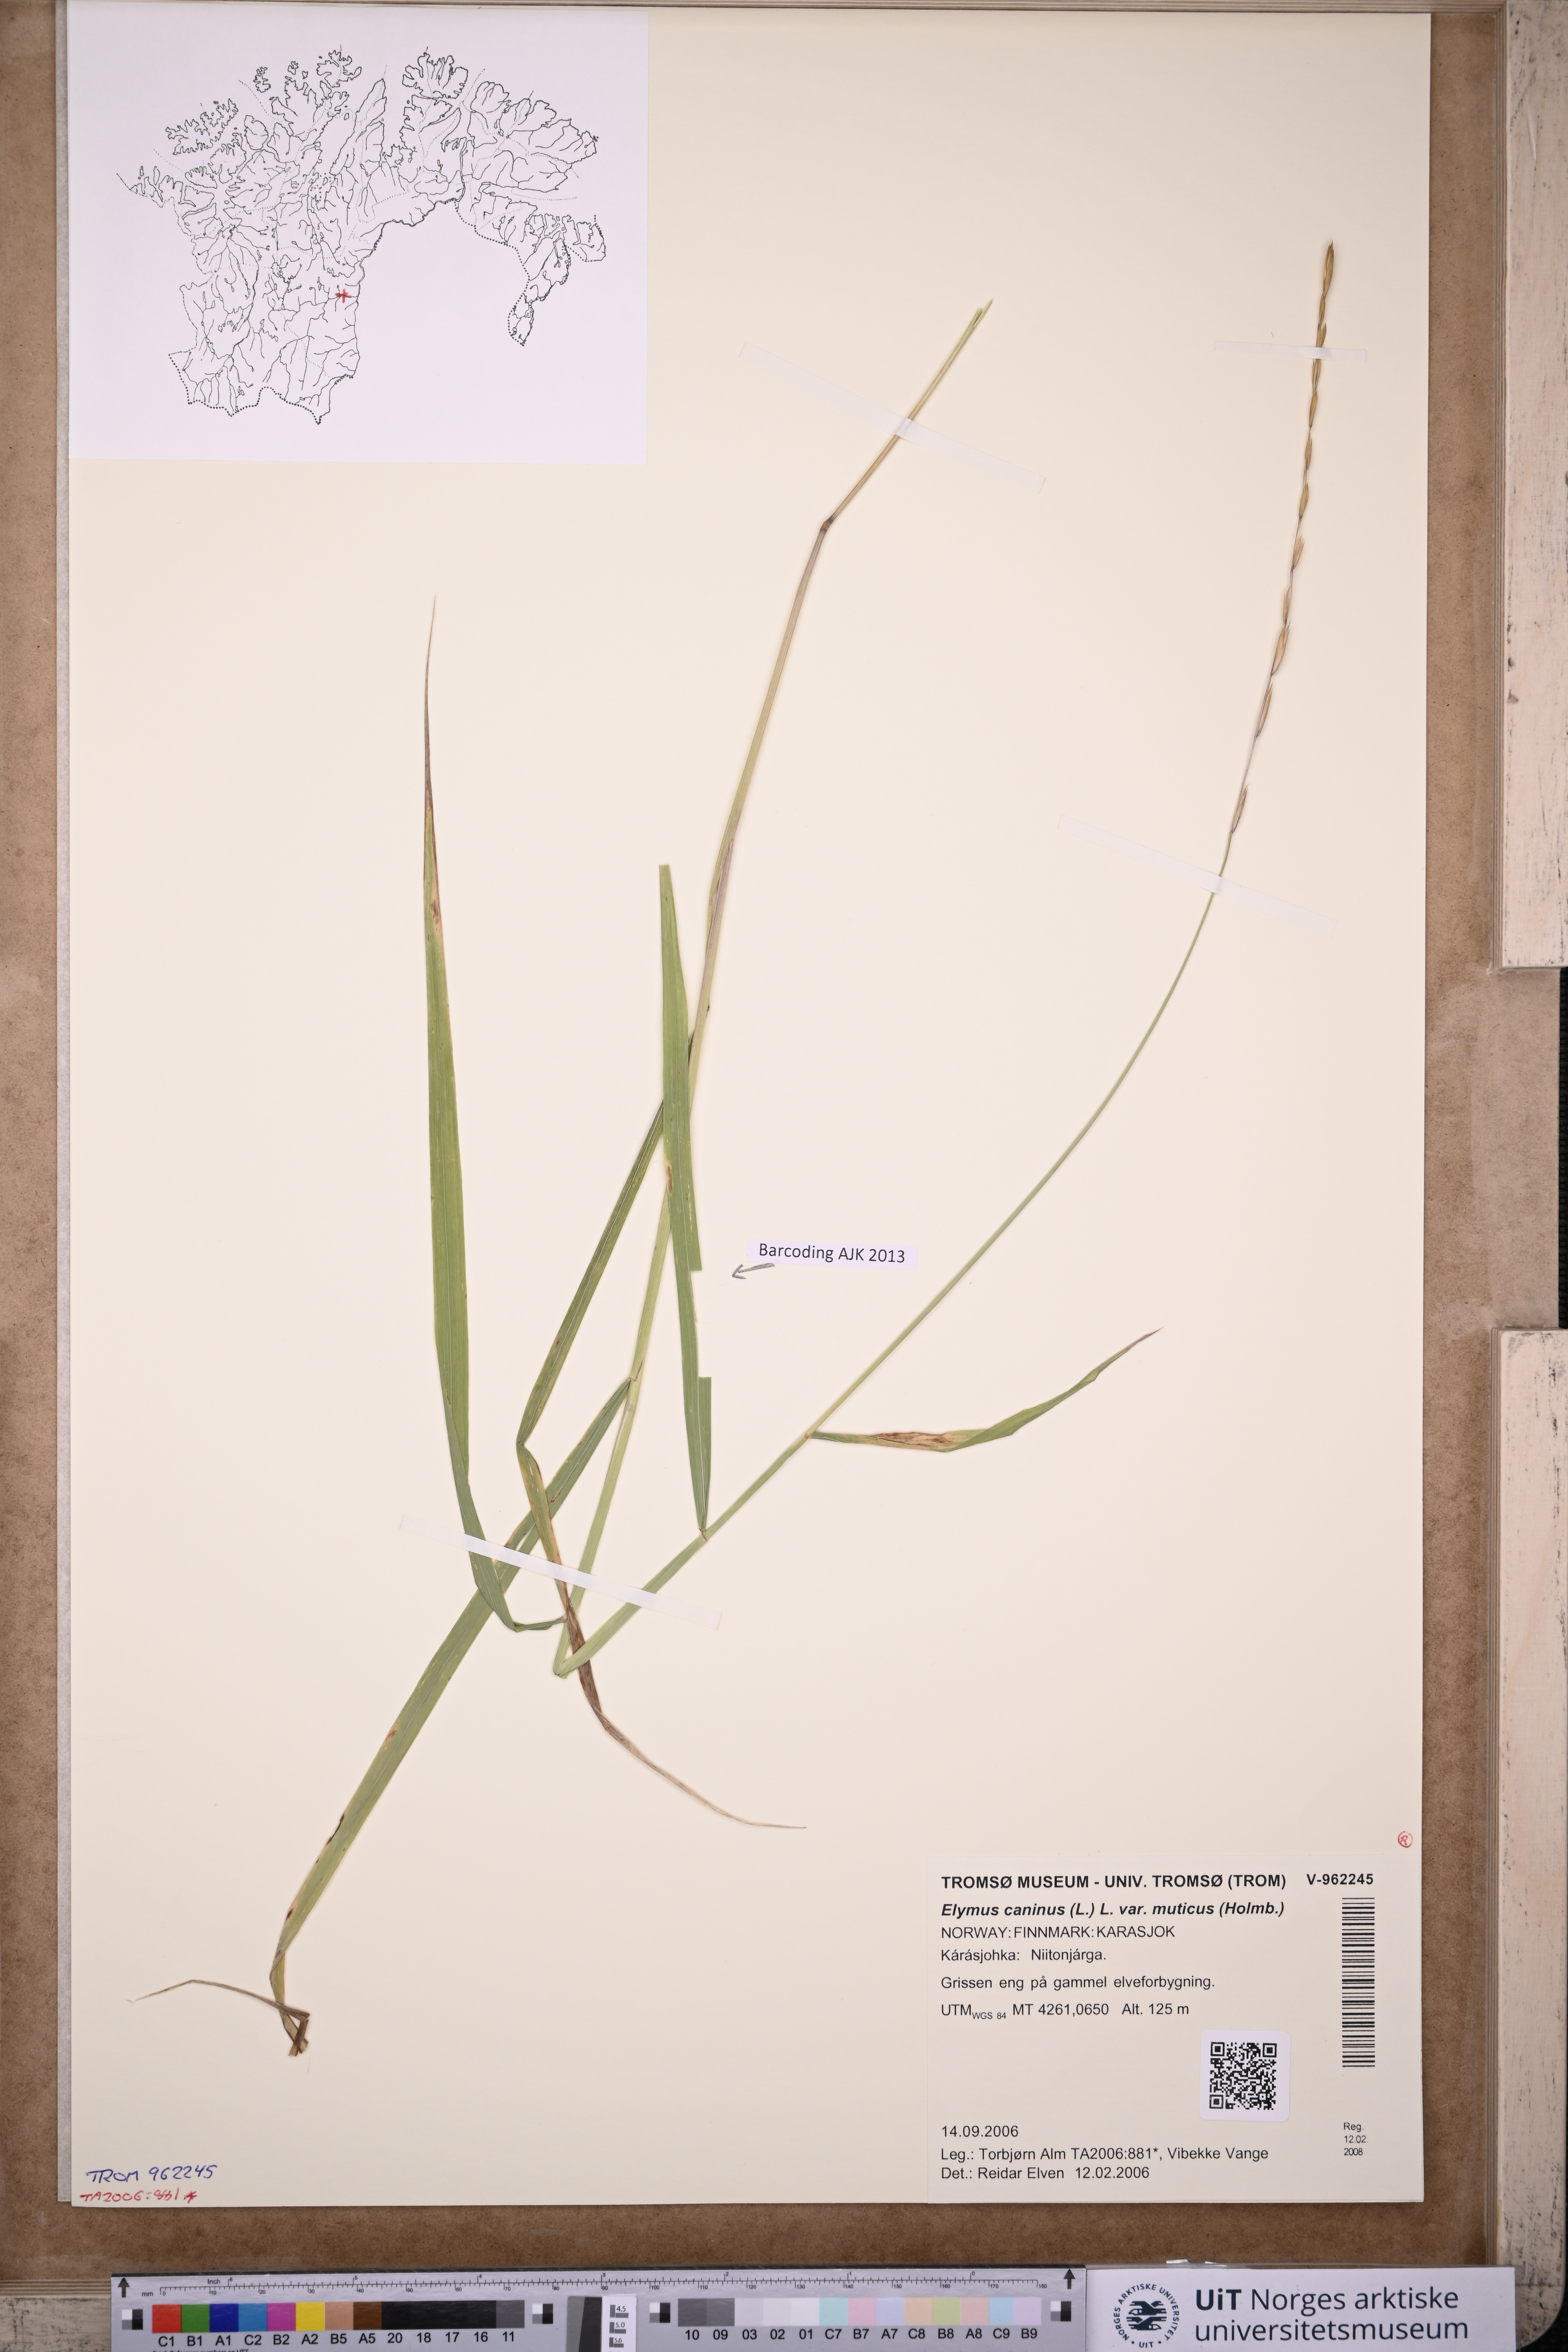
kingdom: Plantae
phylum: Tracheophyta
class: Liliopsida
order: Poales
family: Poaceae
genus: Elymus
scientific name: Elymus caninus
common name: Bearded couch
